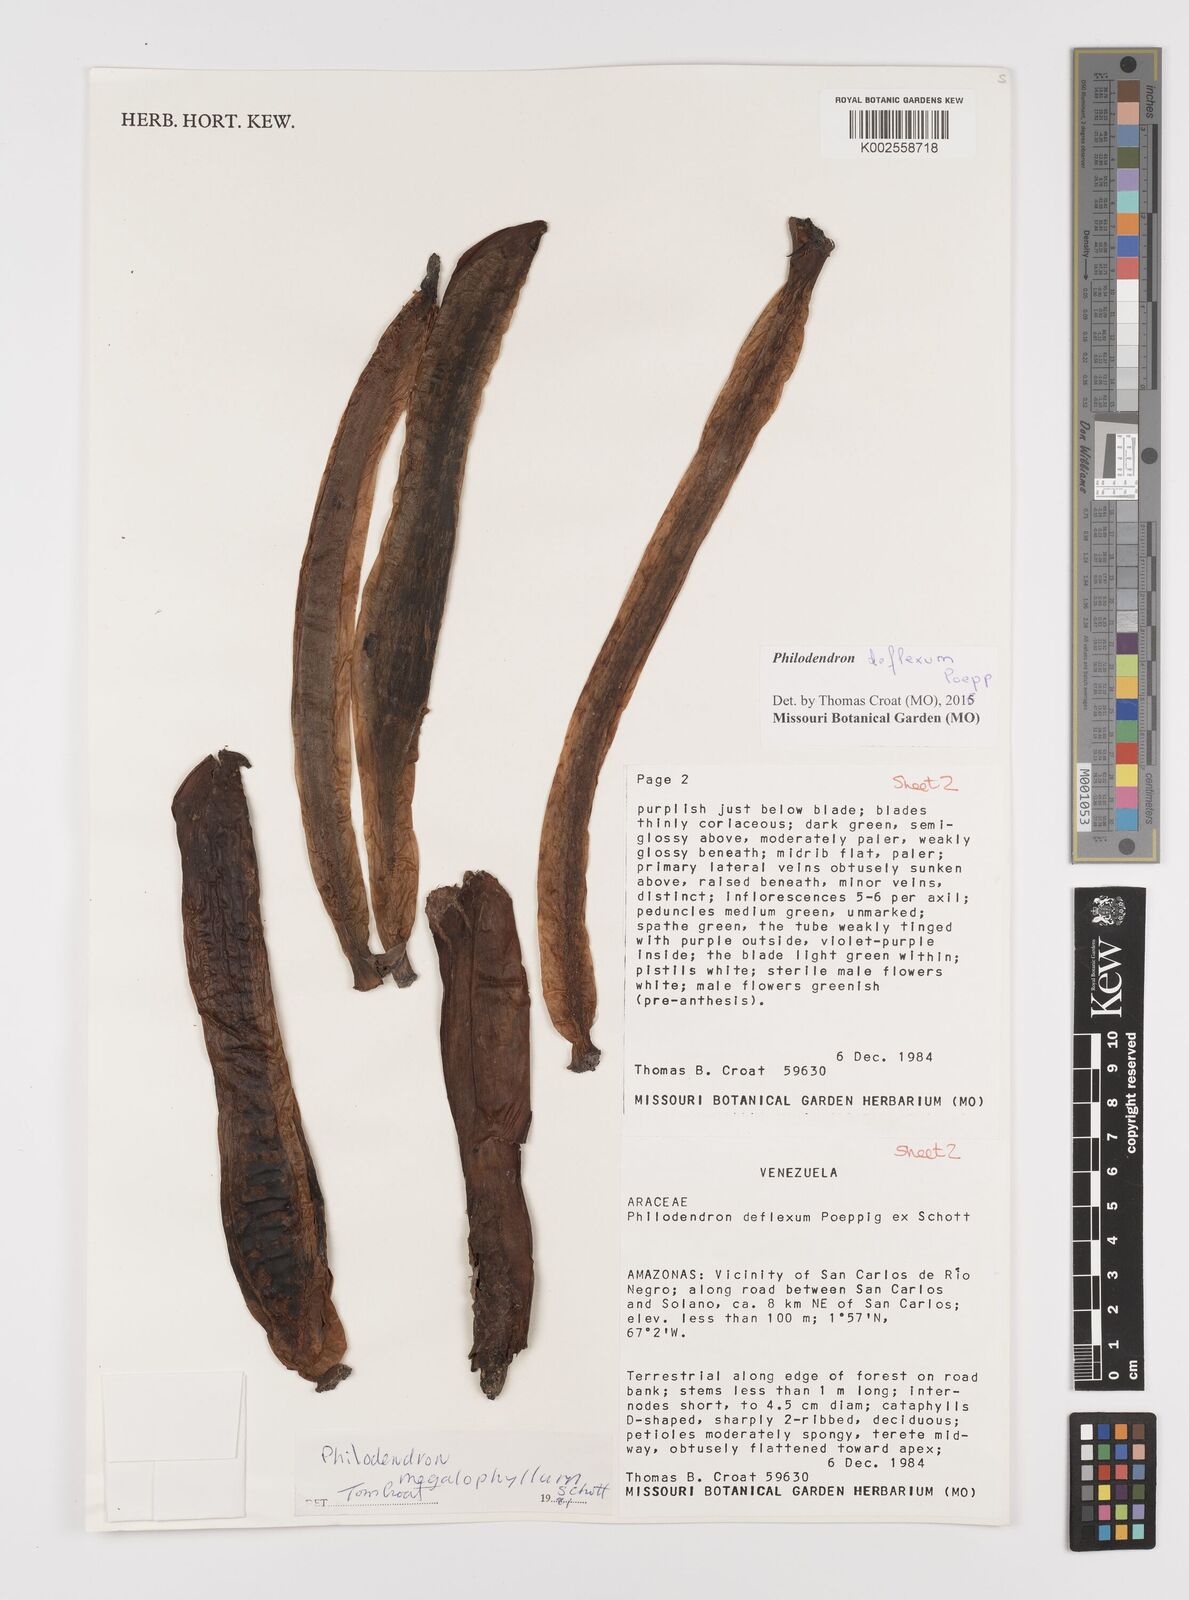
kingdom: Plantae
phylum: Tracheophyta
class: Liliopsida
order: Alismatales
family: Araceae
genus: Philodendron
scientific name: Philodendron deflexum
